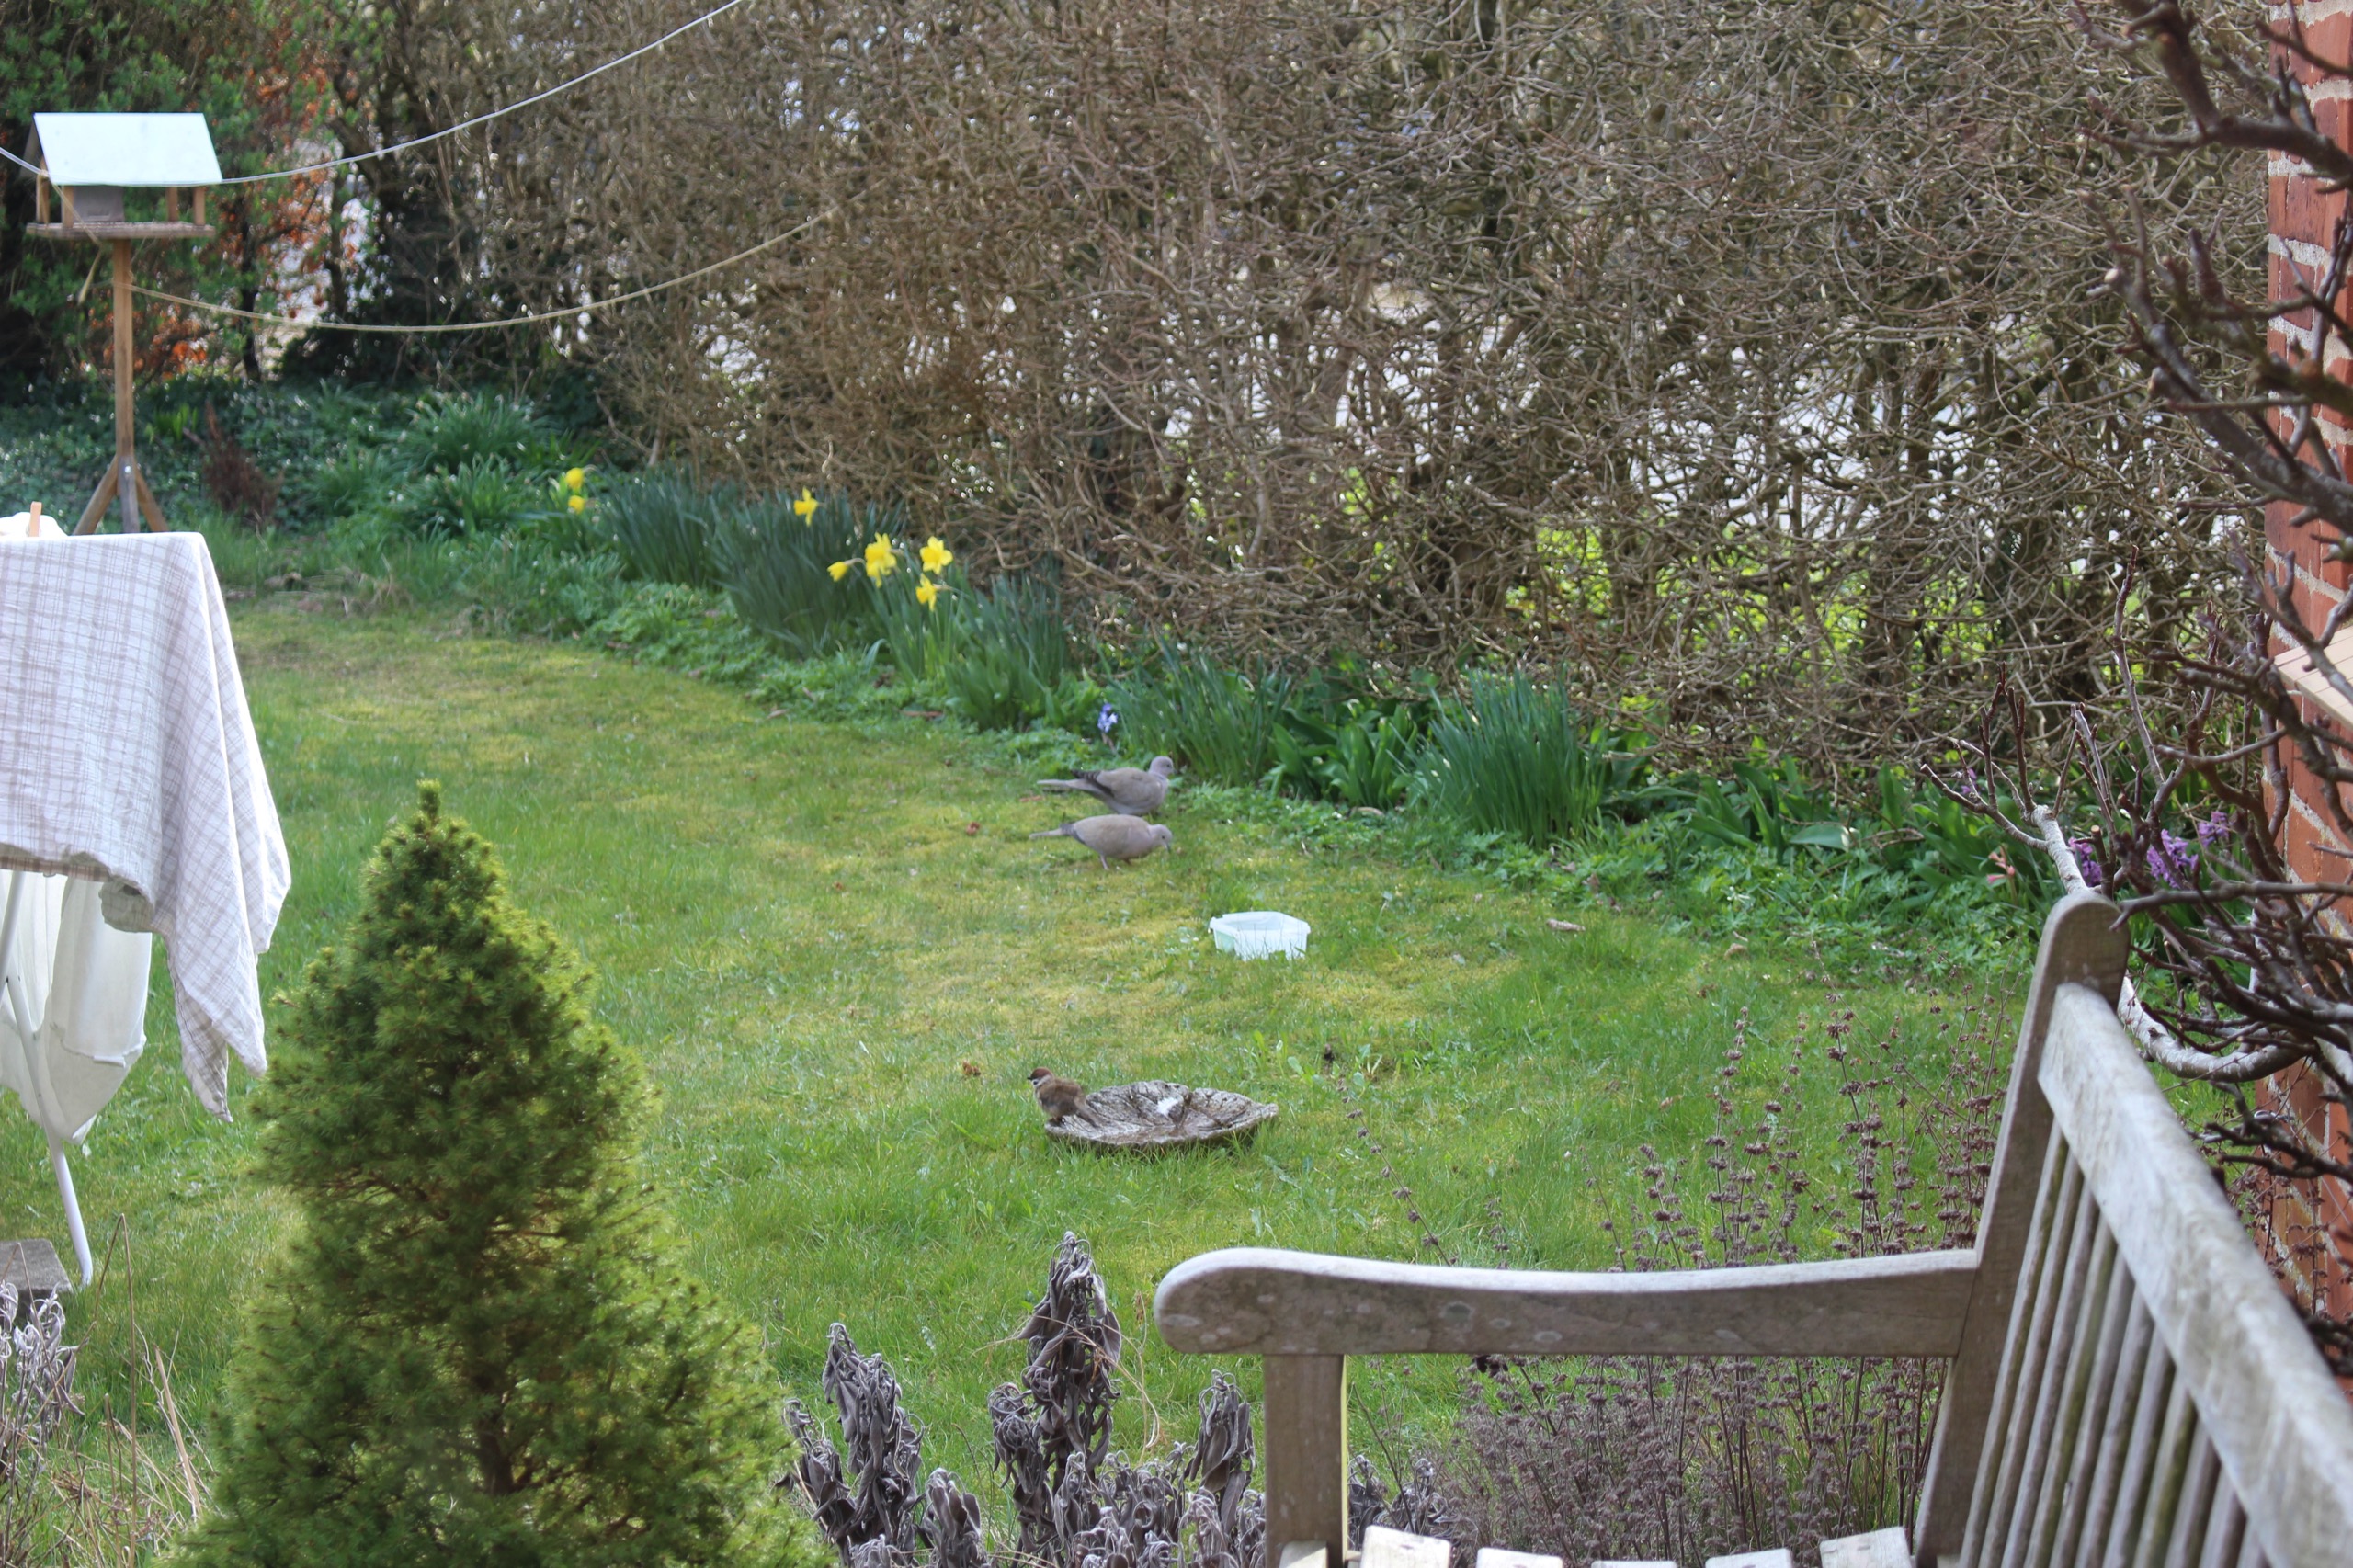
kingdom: Animalia
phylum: Chordata
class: Aves
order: Columbiformes
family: Columbidae
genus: Streptopelia
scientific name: Streptopelia decaocto
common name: Tyrkerdue
